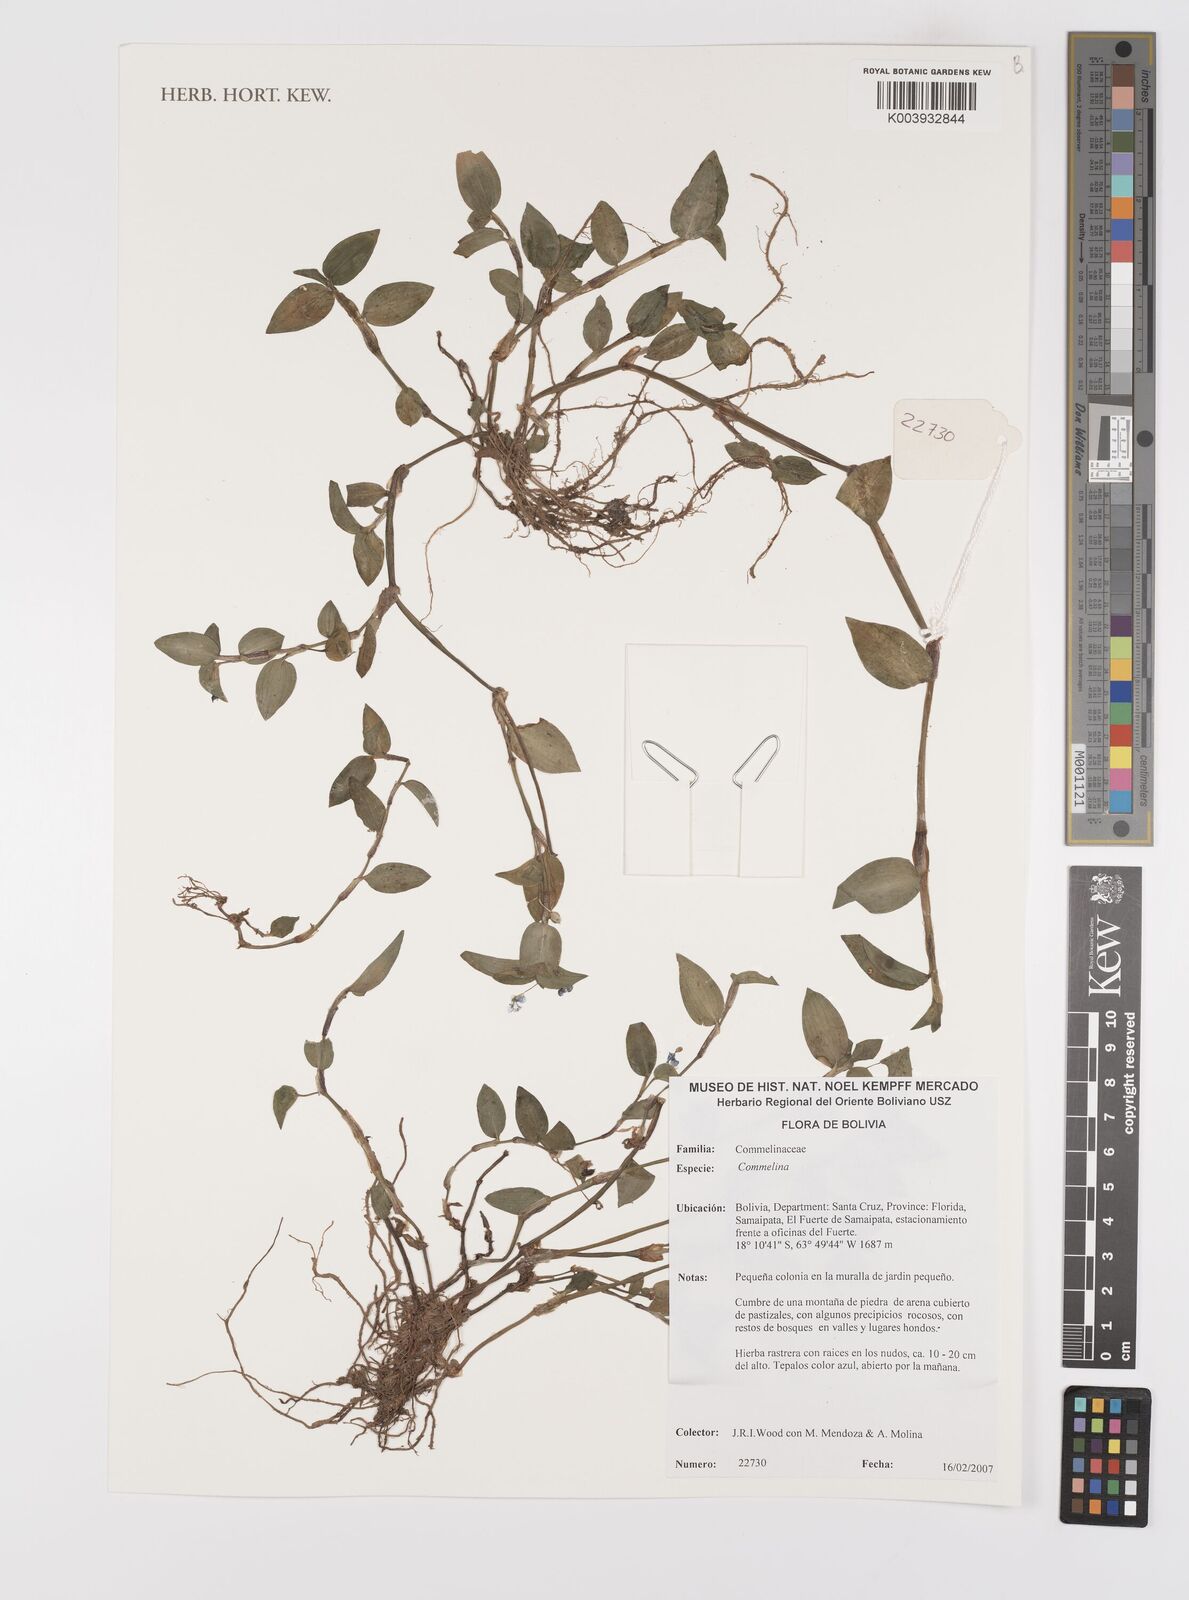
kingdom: Plantae
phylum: Tracheophyta
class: Liliopsida
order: Commelinales
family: Commelinaceae
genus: Commelina
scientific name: Commelina
